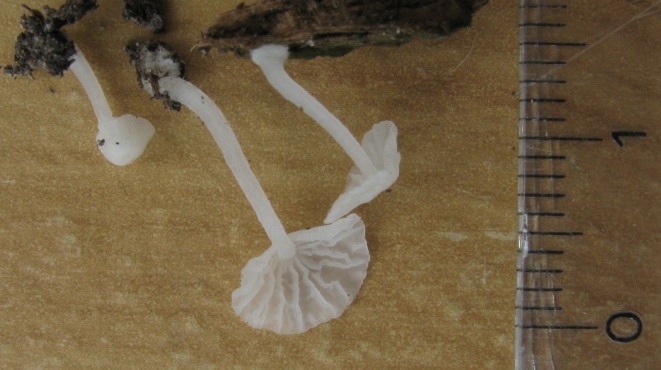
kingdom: Fungi
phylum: Basidiomycota
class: Agaricomycetes
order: Agaricales
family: Tricholomataceae
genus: Delicatula
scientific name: Delicatula integrella
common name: slørhuesvamp
